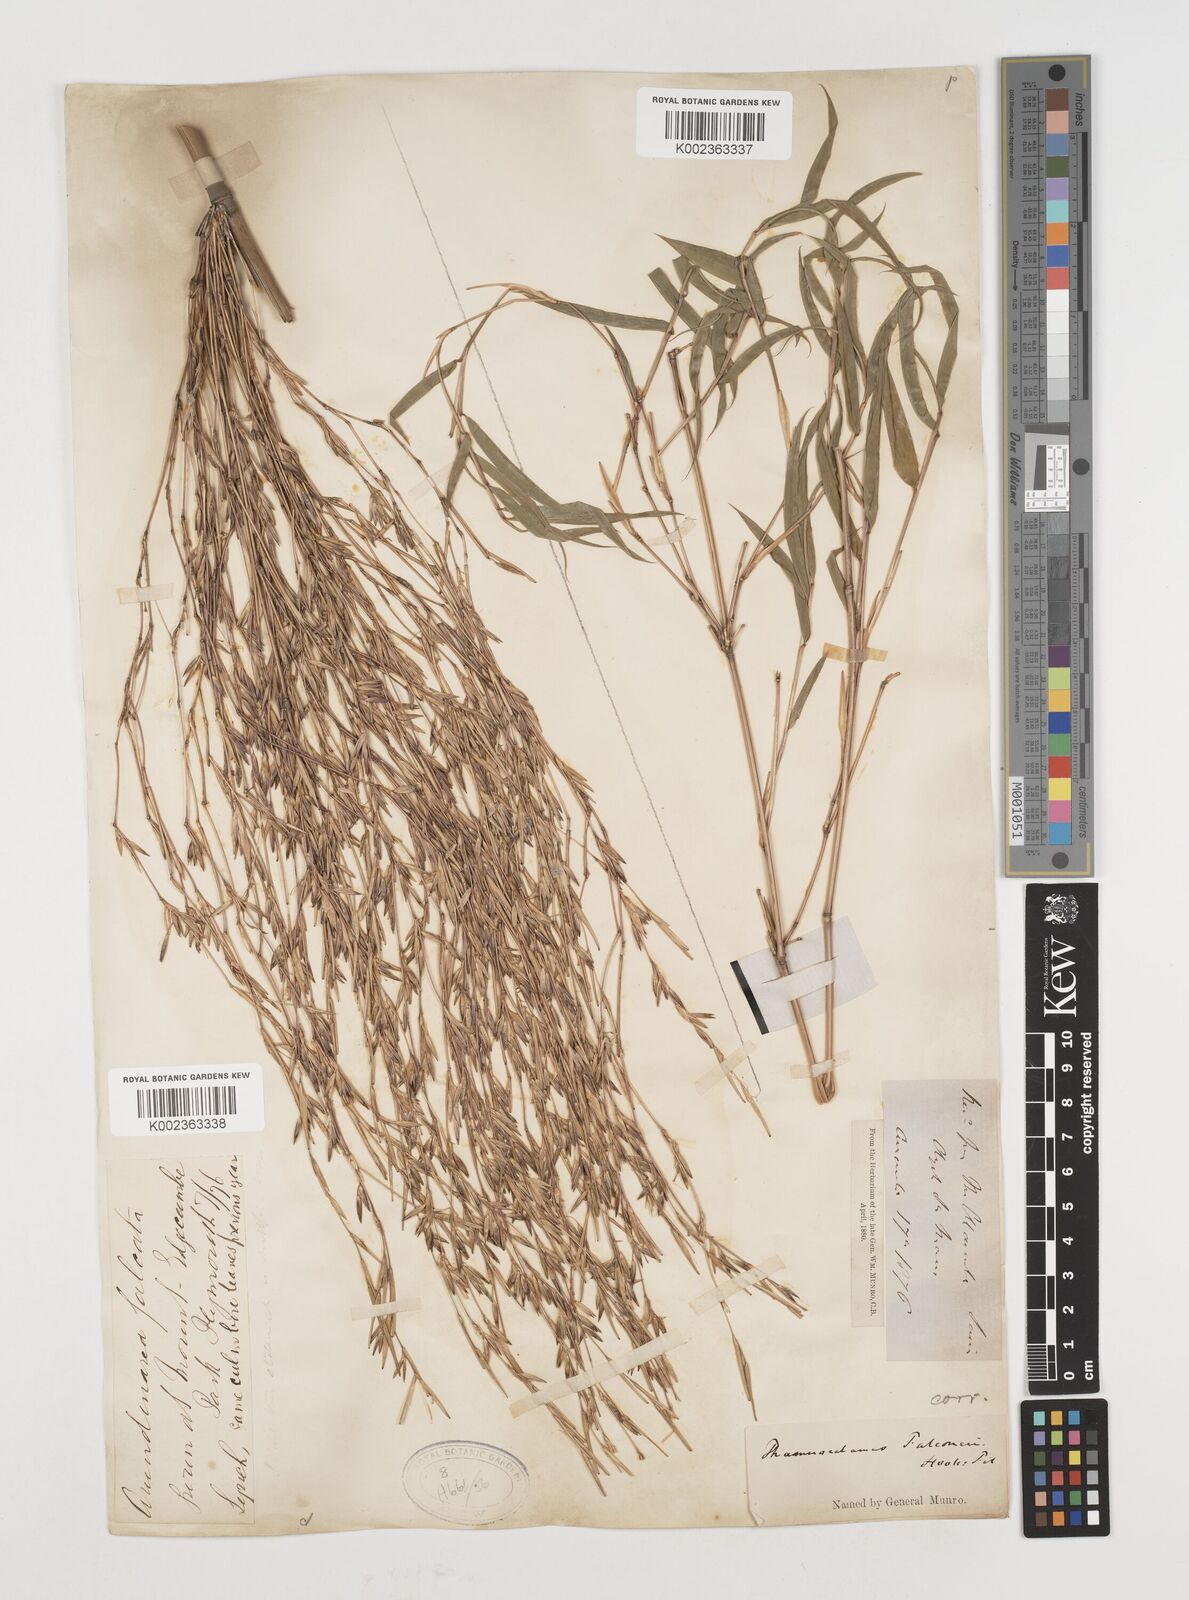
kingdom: Plantae
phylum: Tracheophyta
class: Liliopsida
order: Poales
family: Poaceae
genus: Himalayacalamus
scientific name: Himalayacalamus falconeri
